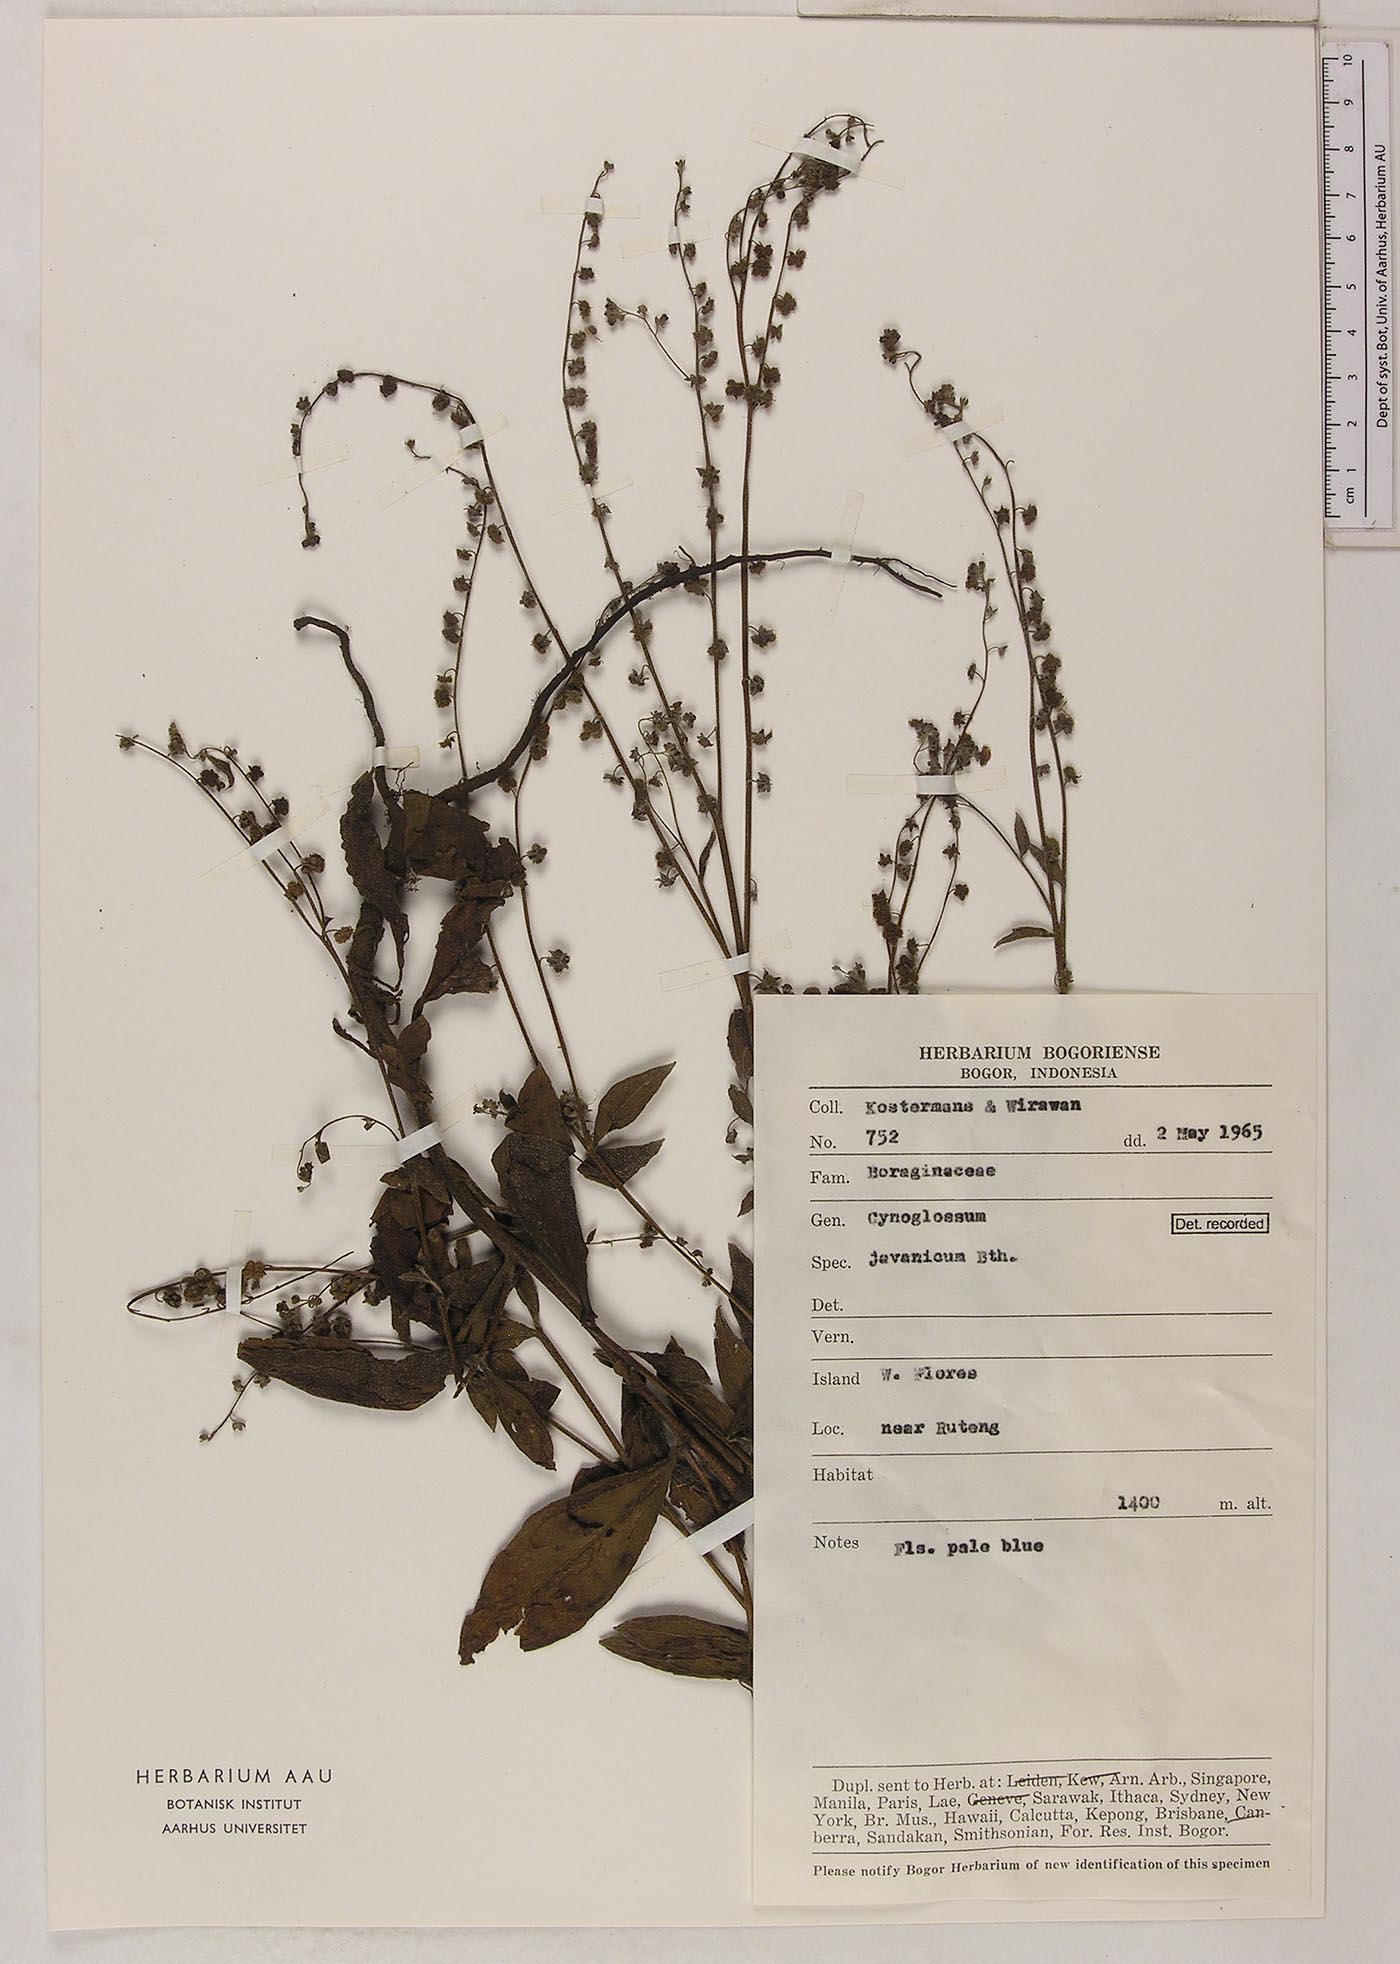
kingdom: Plantae
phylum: Tracheophyta
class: Magnoliopsida
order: Boraginales
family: Boraginaceae
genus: Rochelia
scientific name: Rochelia zeylanica
